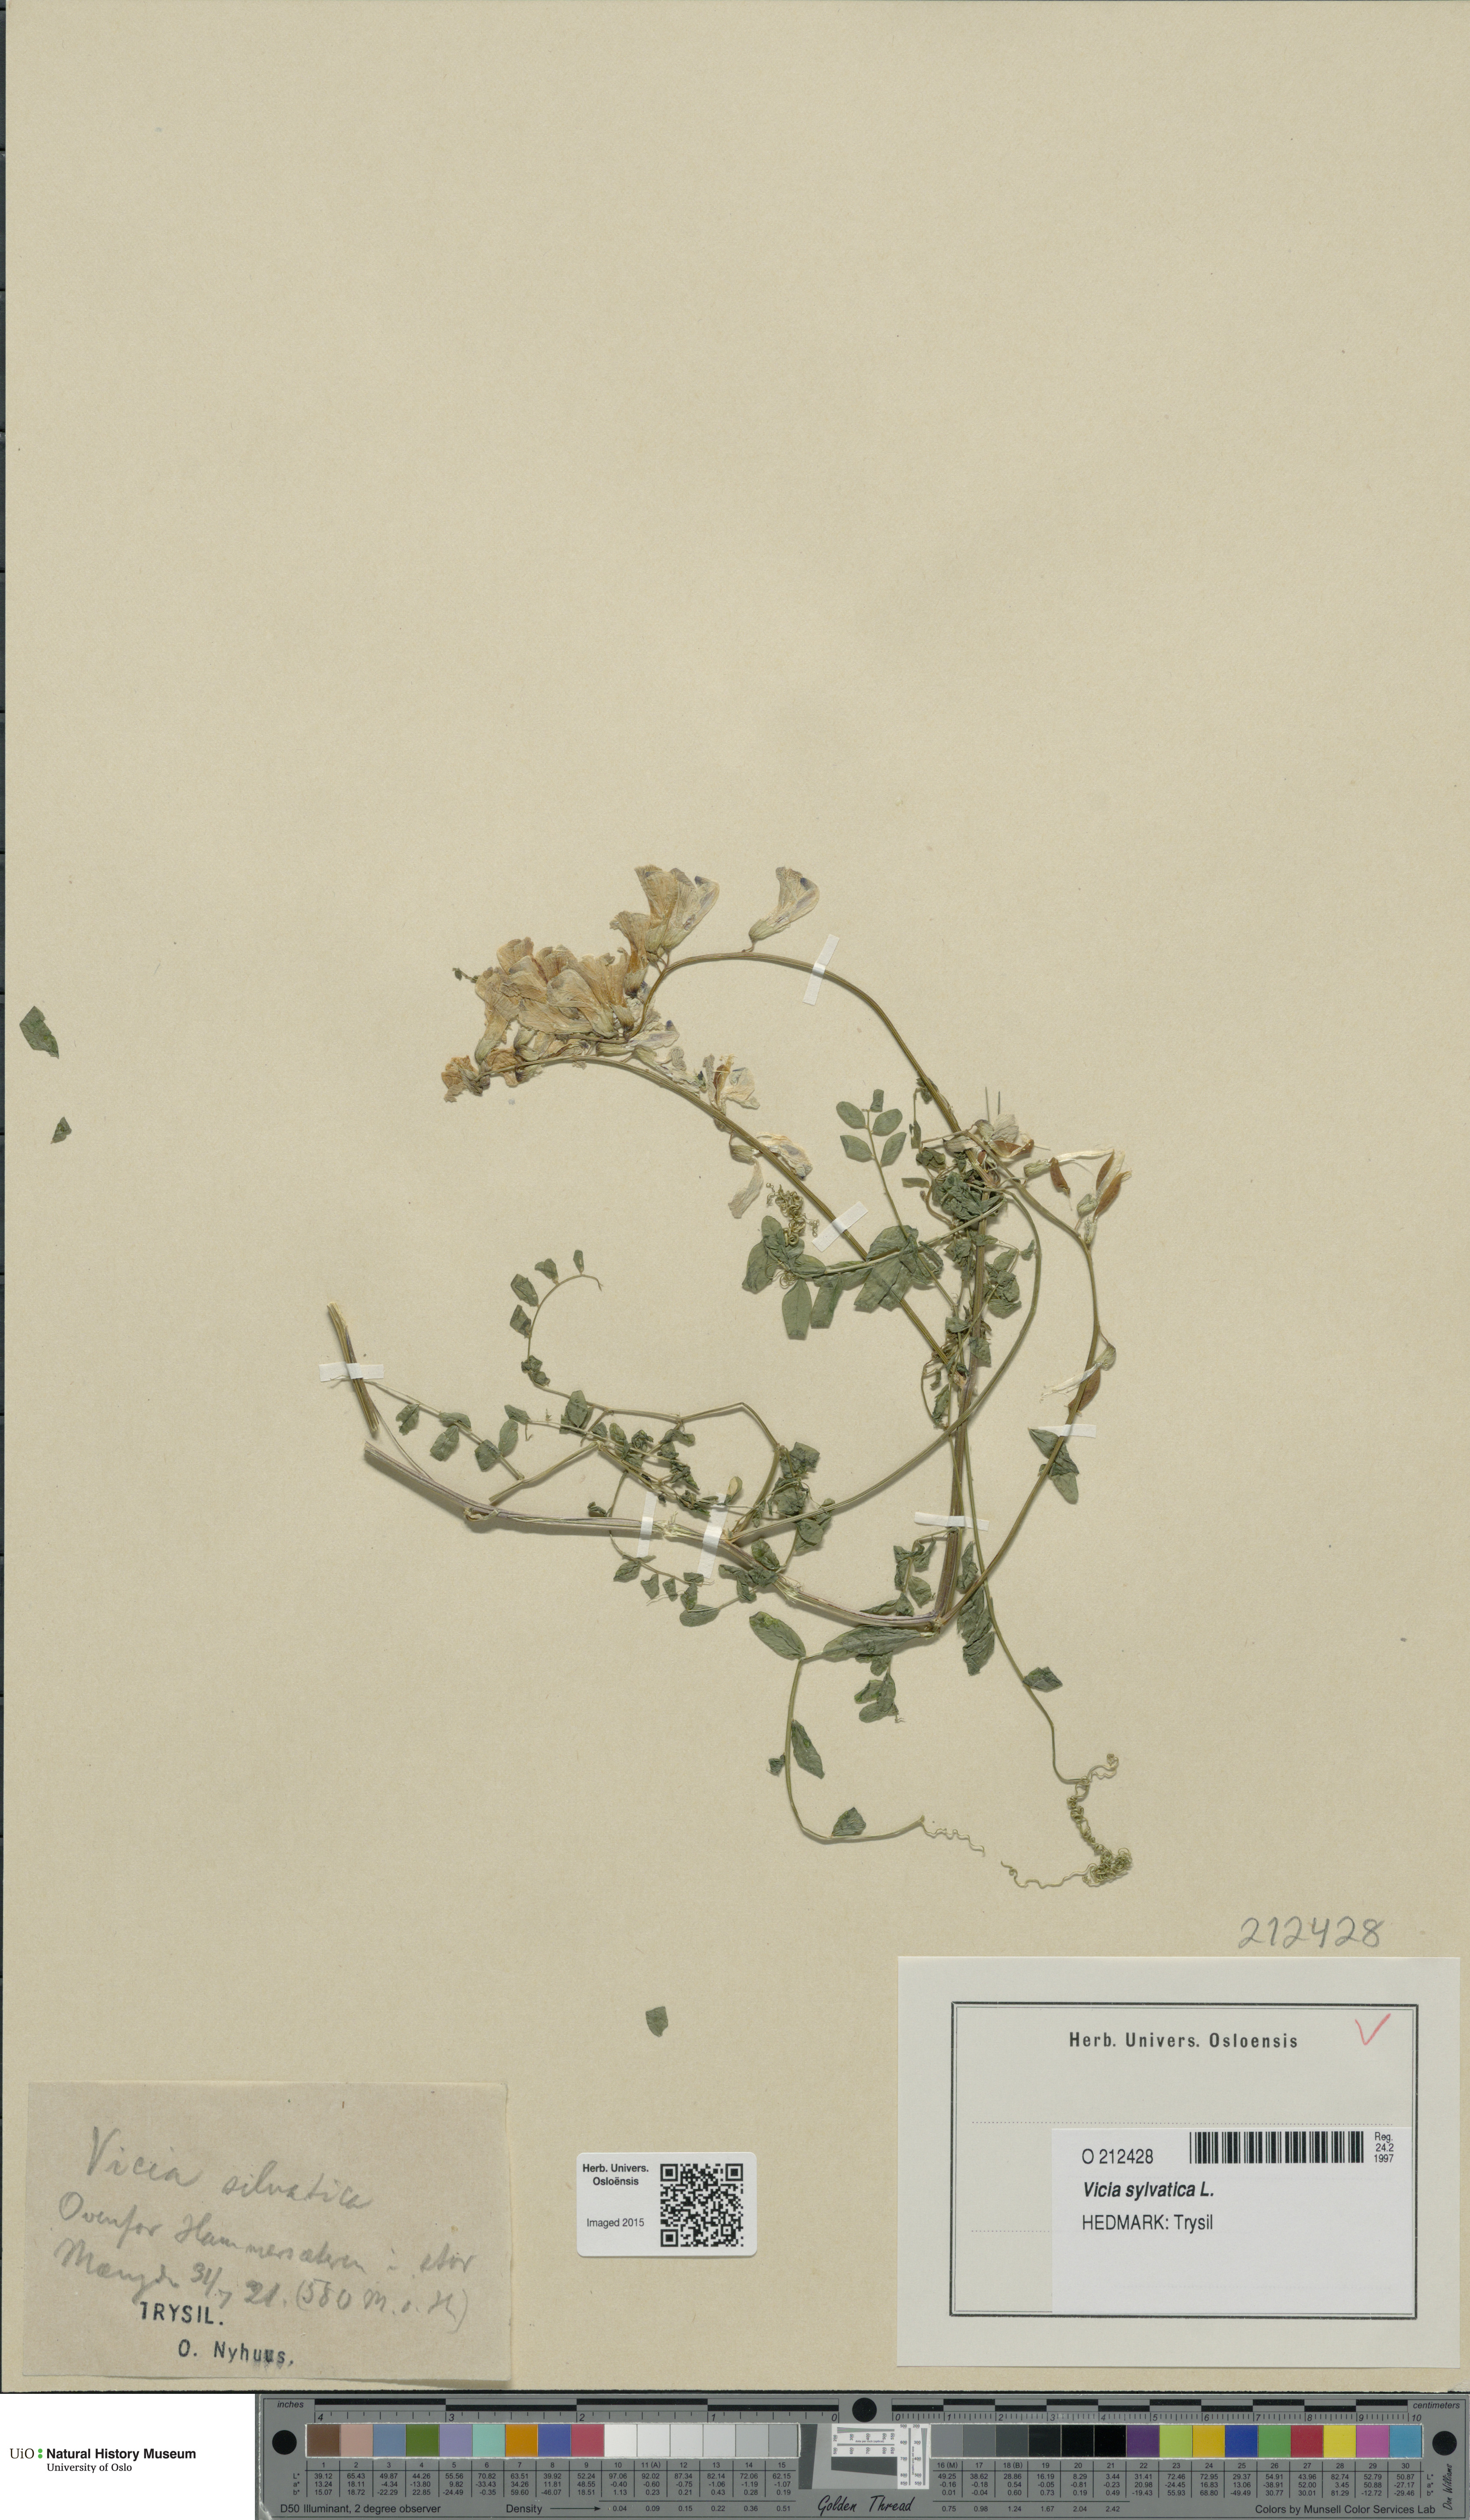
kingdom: Plantae
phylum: Tracheophyta
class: Magnoliopsida
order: Fabales
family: Fabaceae
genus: Vicia
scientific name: Vicia sylvatica
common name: Wood vetch
